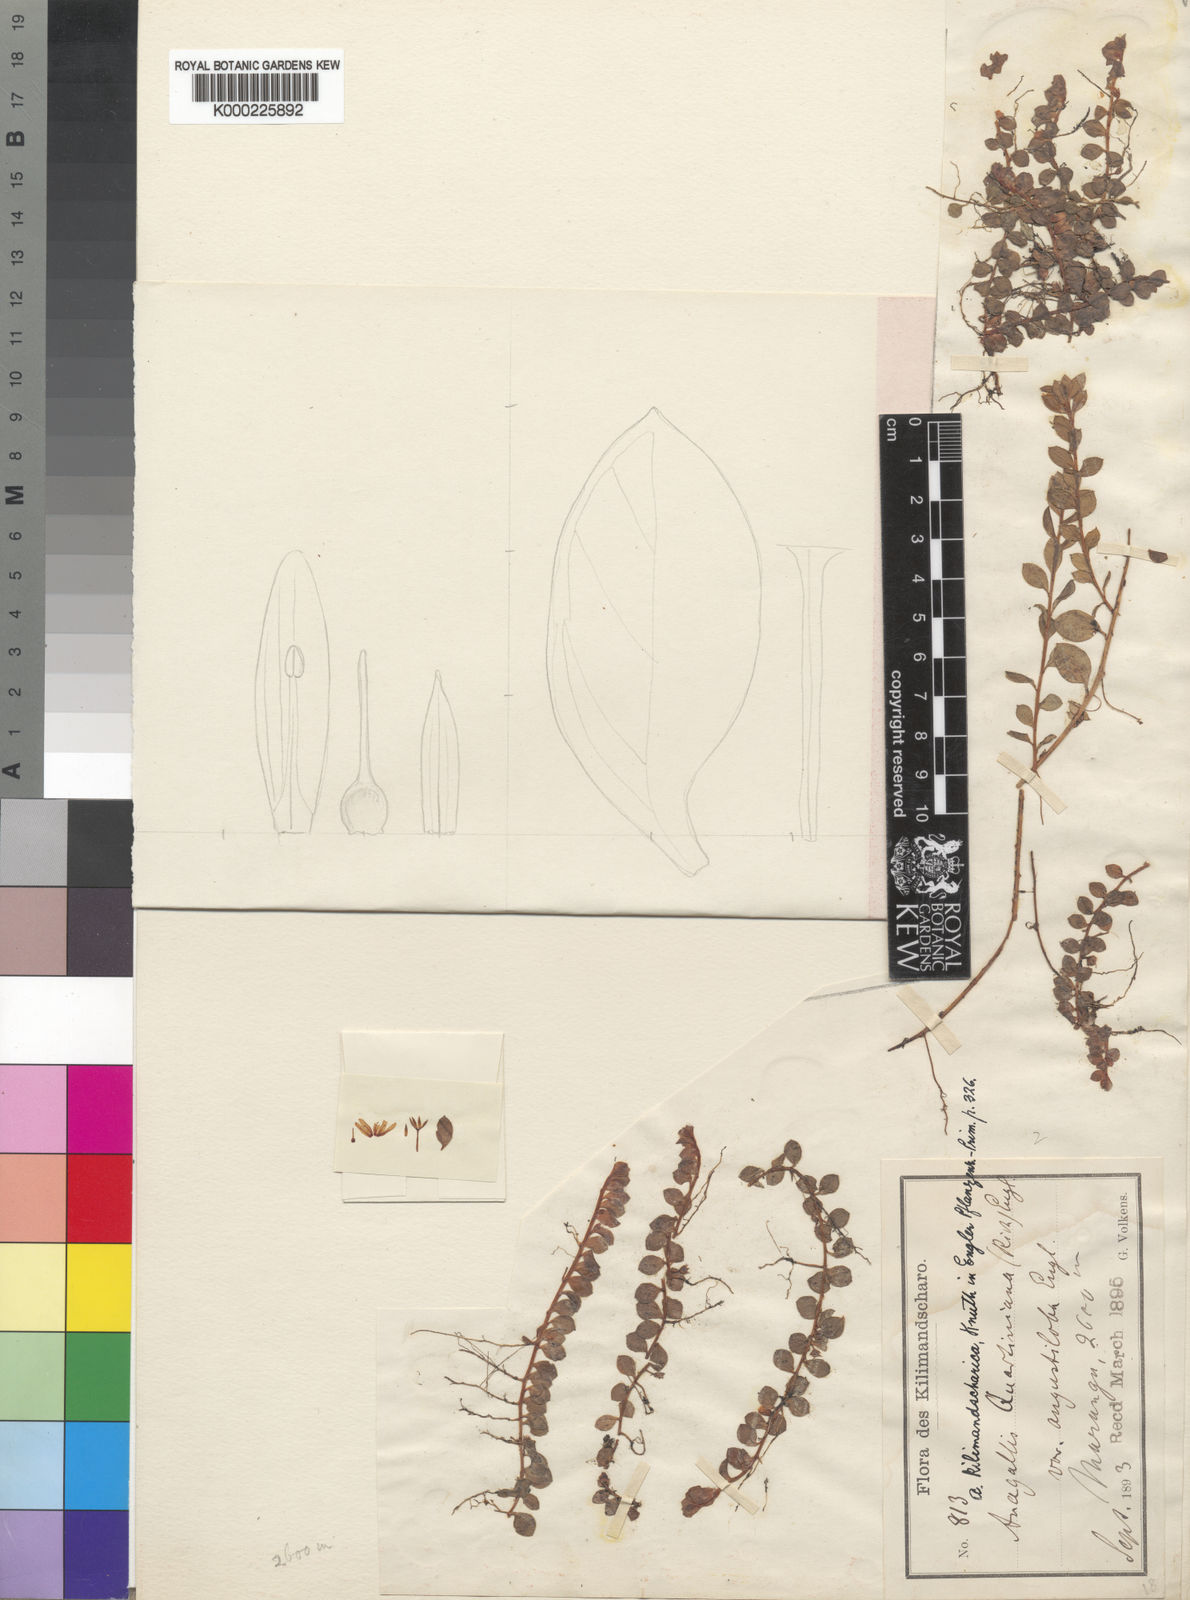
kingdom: Plantae
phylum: Tracheophyta
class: Magnoliopsida
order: Ericales
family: Primulaceae
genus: Lysimachia
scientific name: Lysimachia Anagallis spec
